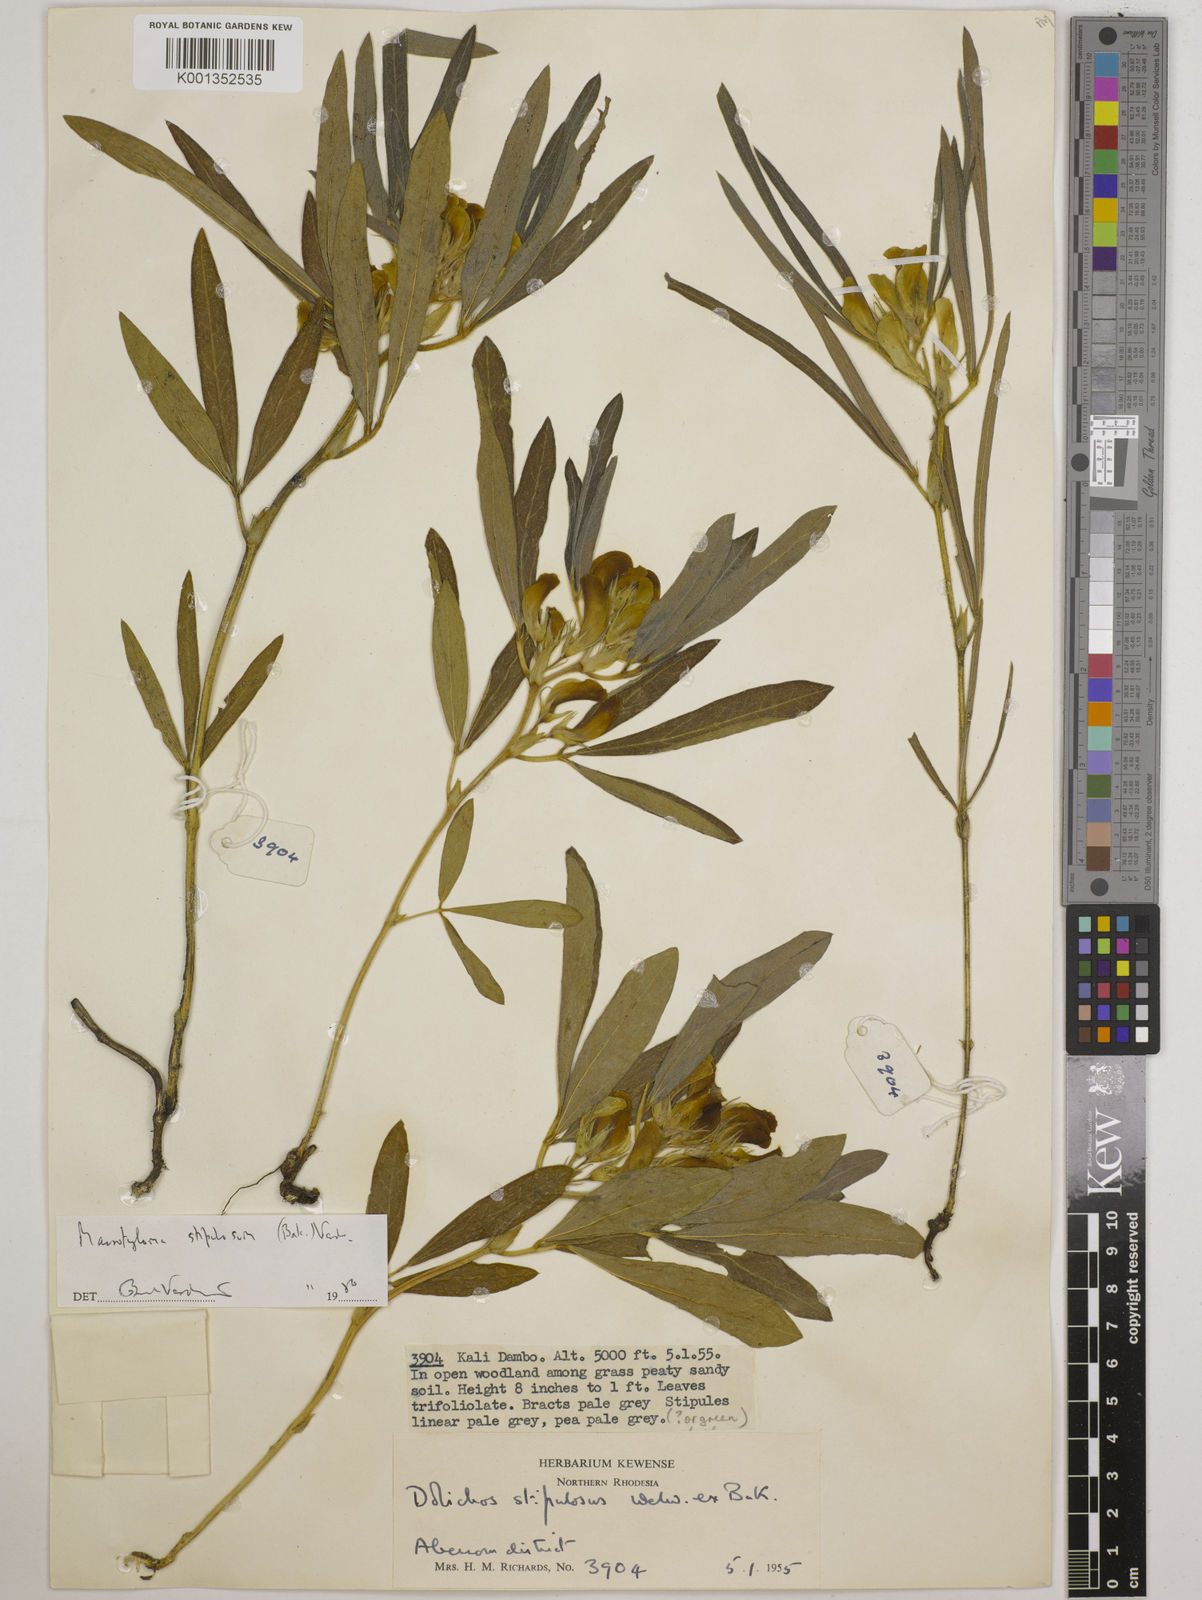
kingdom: Plantae
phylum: Tracheophyta
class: Magnoliopsida
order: Fabales
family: Fabaceae
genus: Macrotyloma
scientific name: Macrotyloma stipulosum
